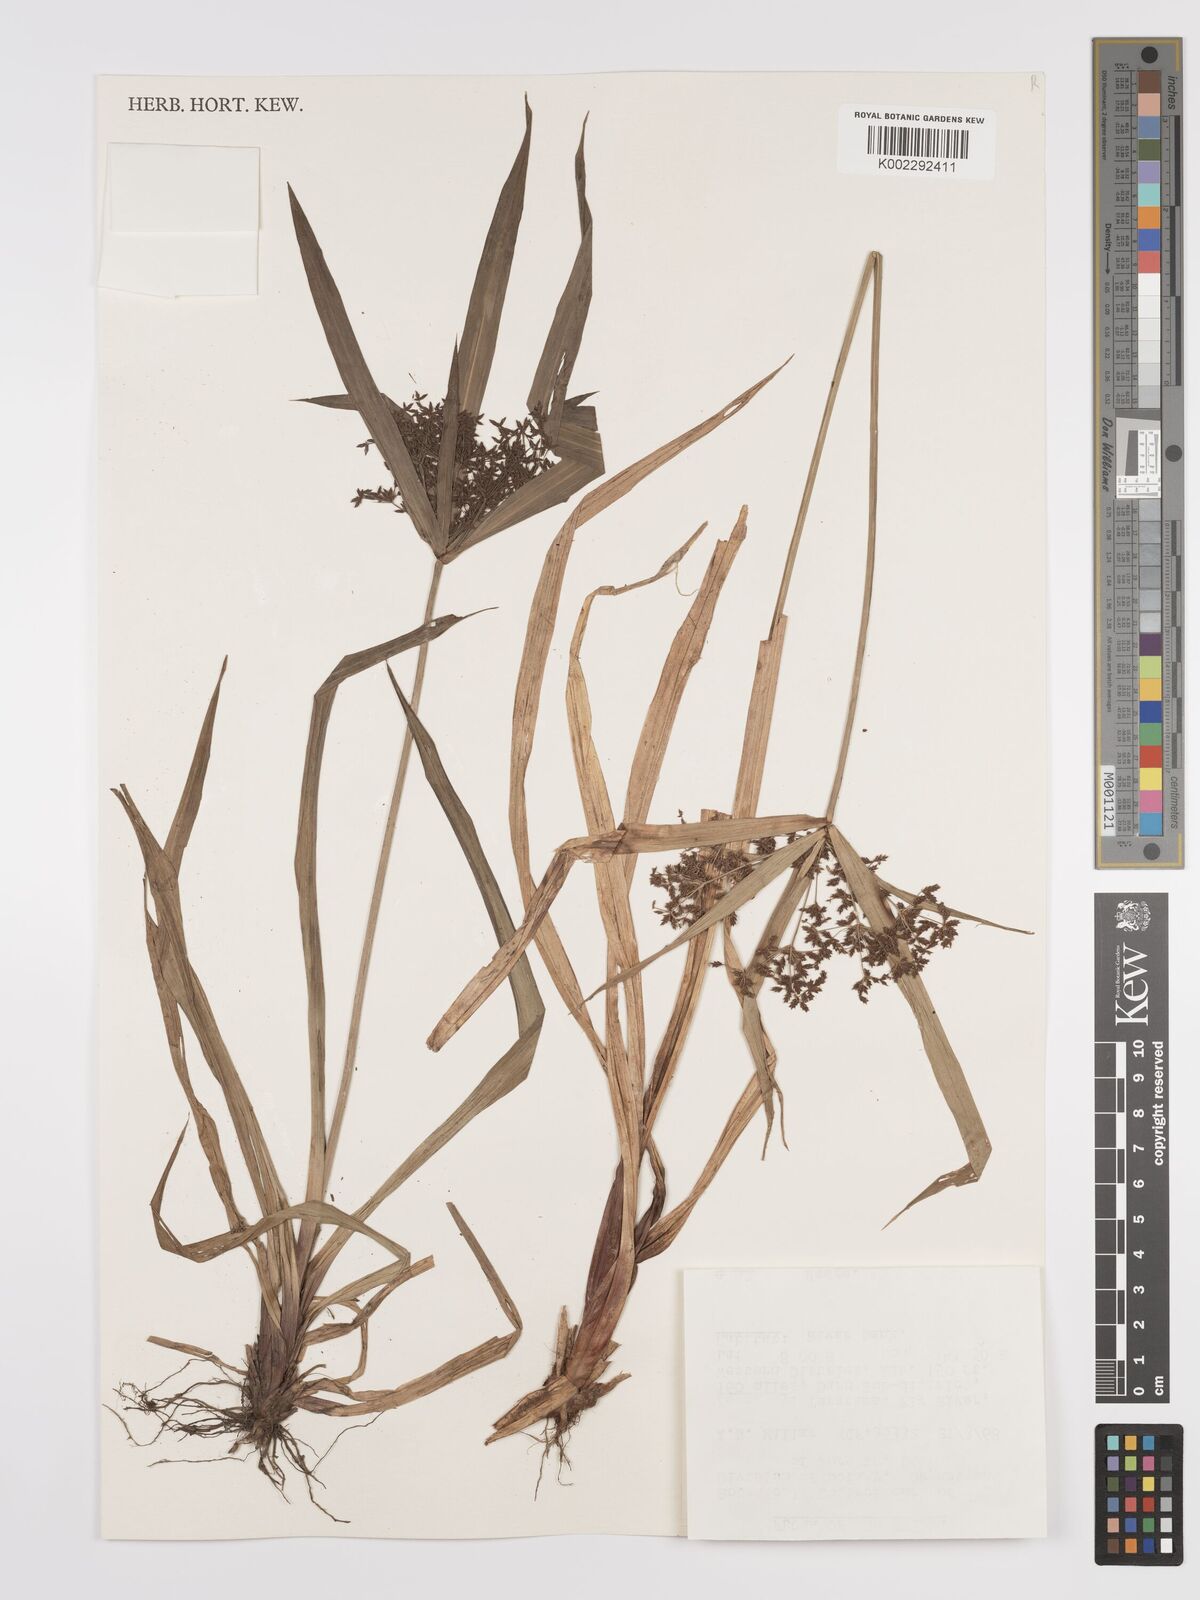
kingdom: Plantae
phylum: Tracheophyta
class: Liliopsida
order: Poales
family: Cyperaceae
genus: Cyperus
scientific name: Cyperus diffusus
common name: Dwarf umbrella grass
